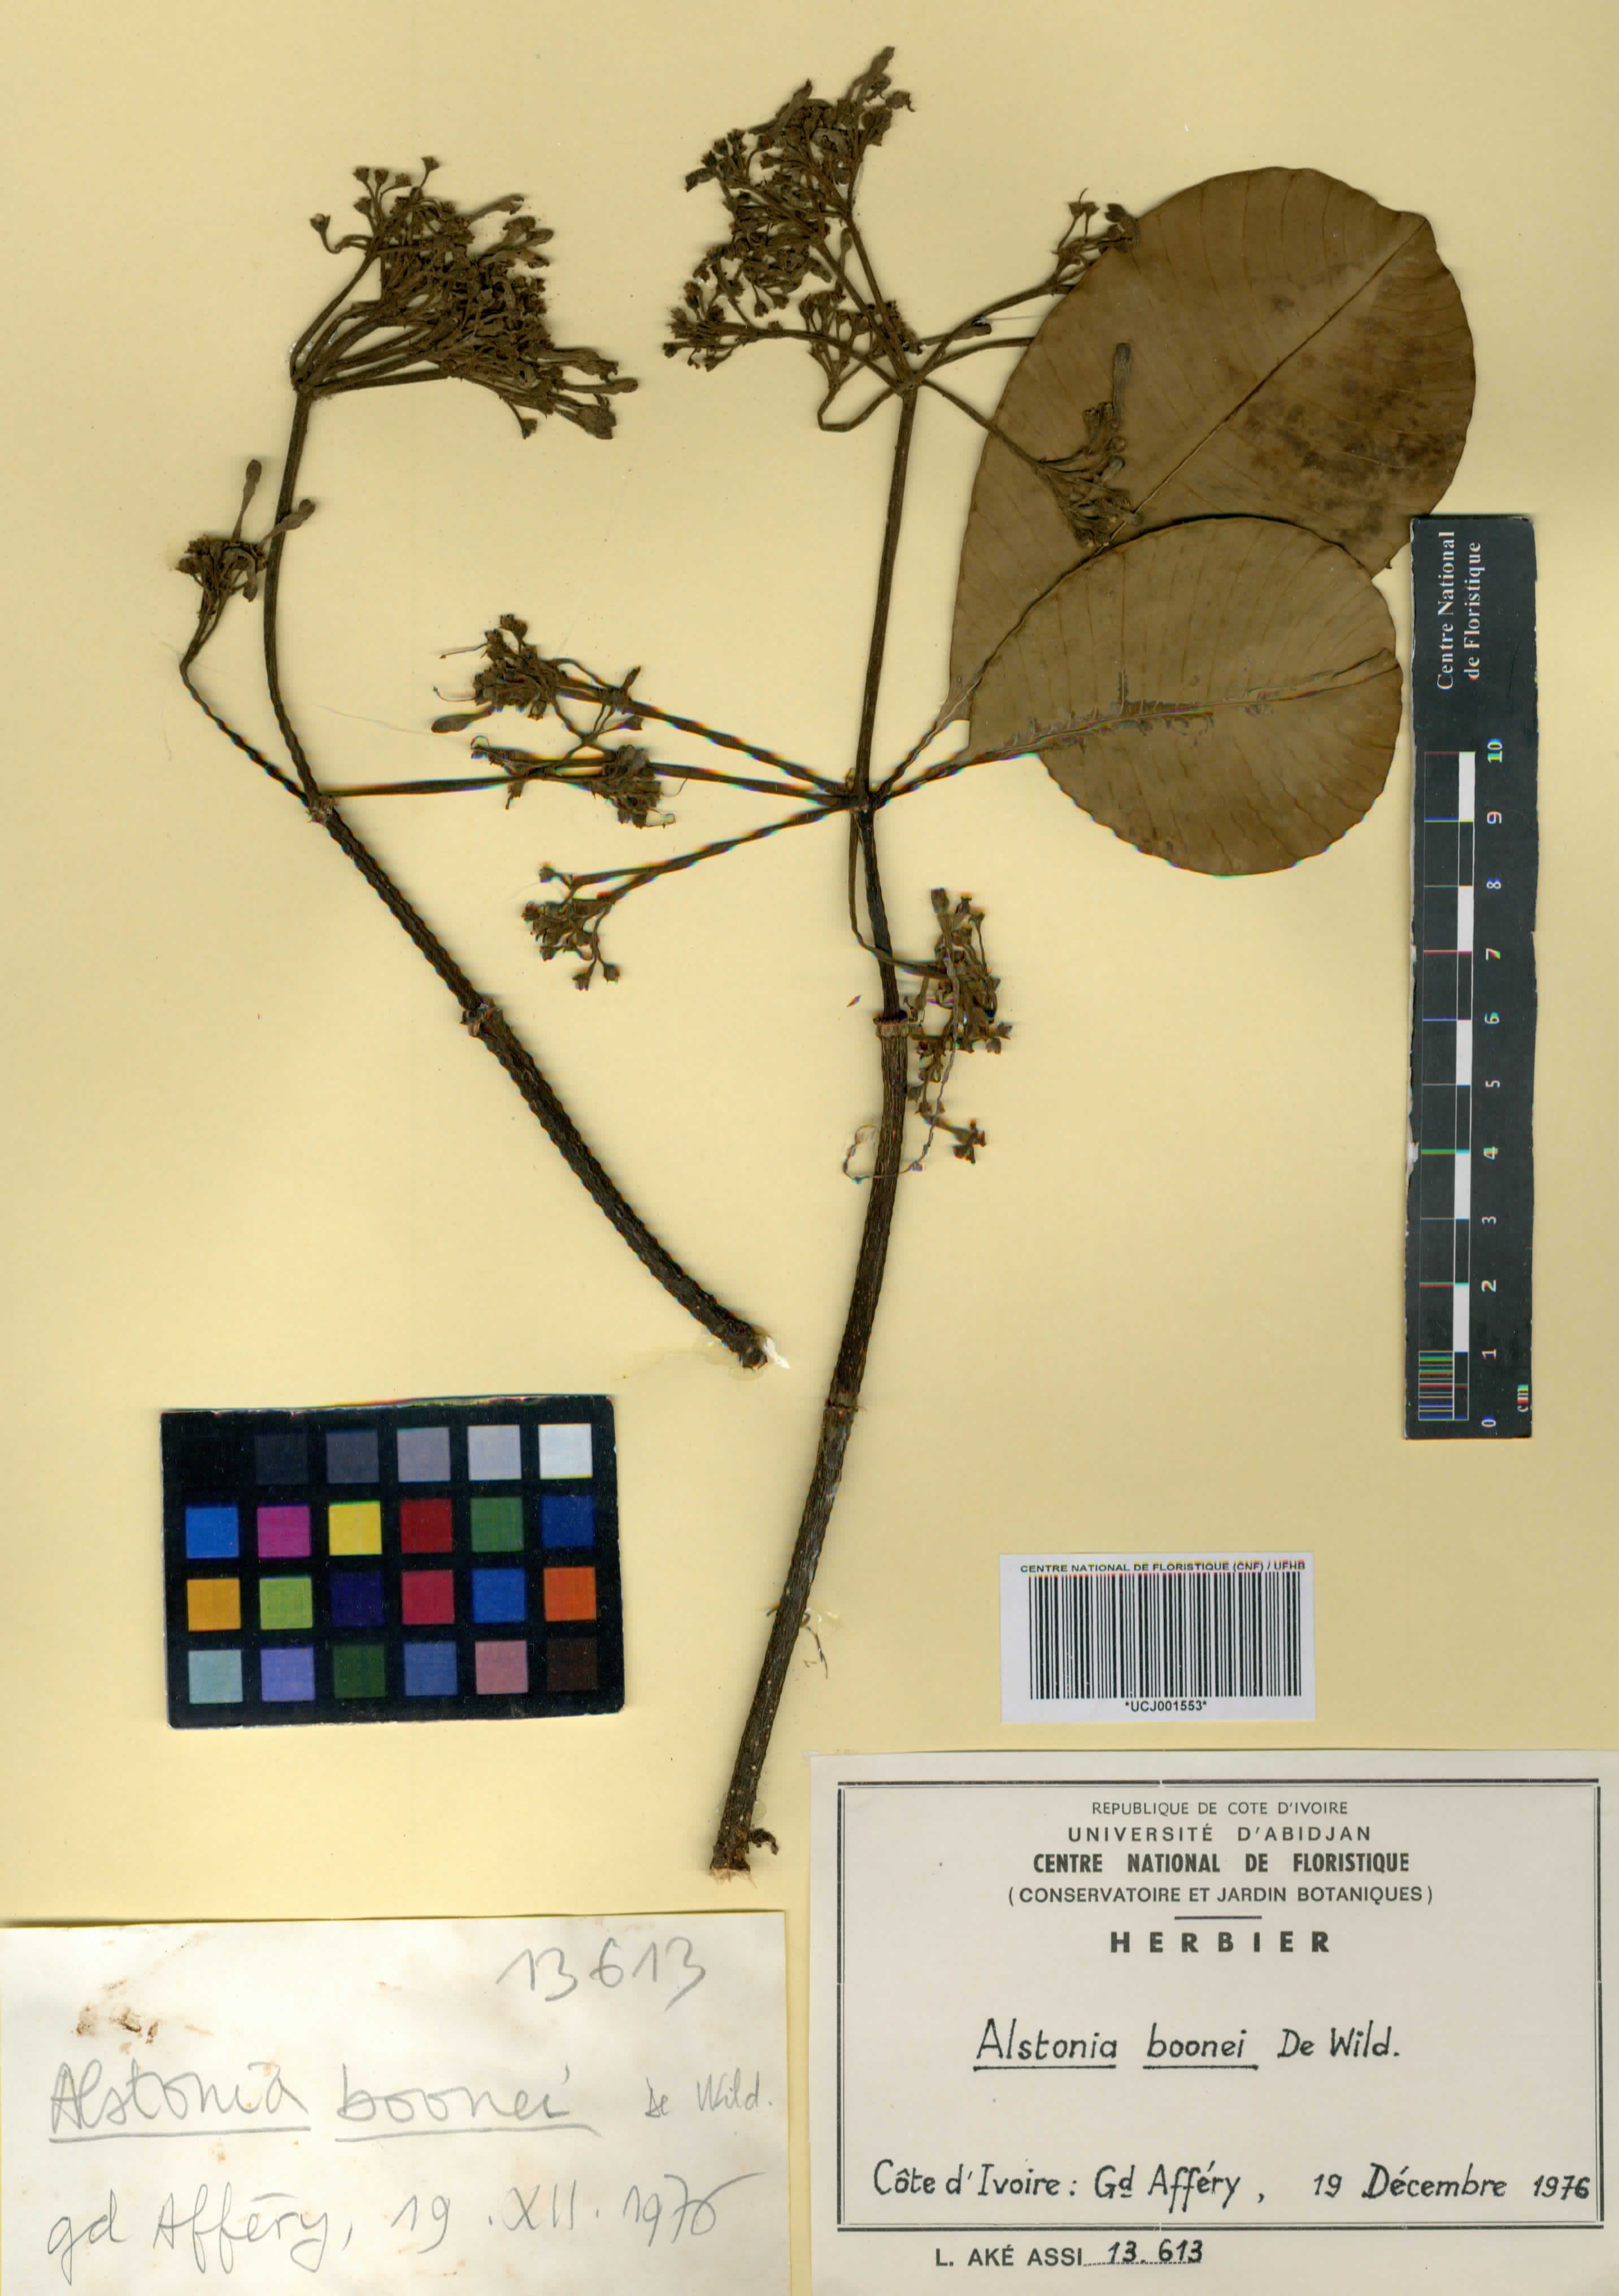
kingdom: Plantae
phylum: Tracheophyta
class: Magnoliopsida
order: Gentianales
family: Apocynaceae
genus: Alstonia
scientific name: Alstonia boonei
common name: Alstonia
